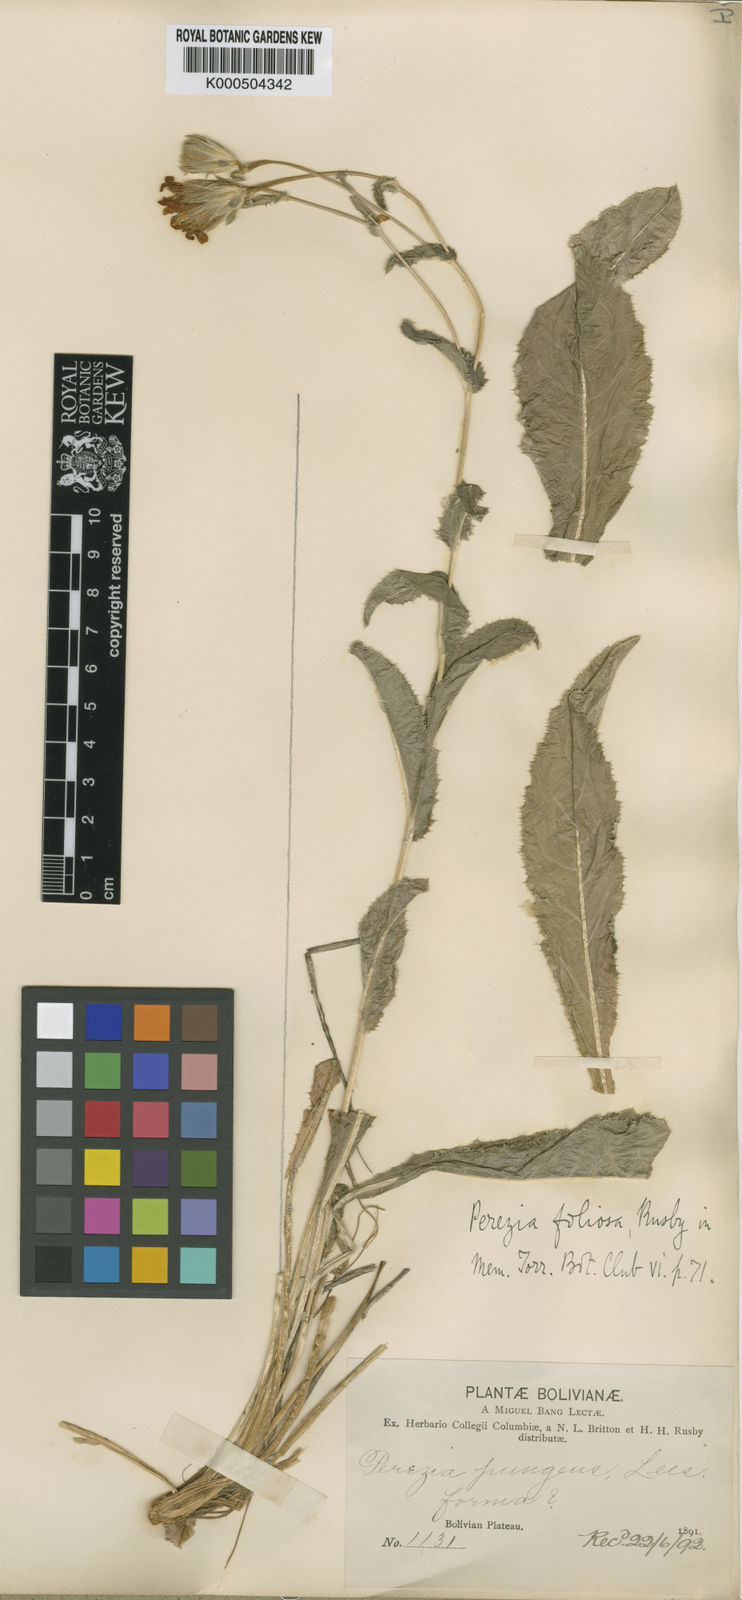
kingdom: Plantae
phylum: Tracheophyta
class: Magnoliopsida
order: Asterales
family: Asteraceae
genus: Perezia
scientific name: Perezia pungens
